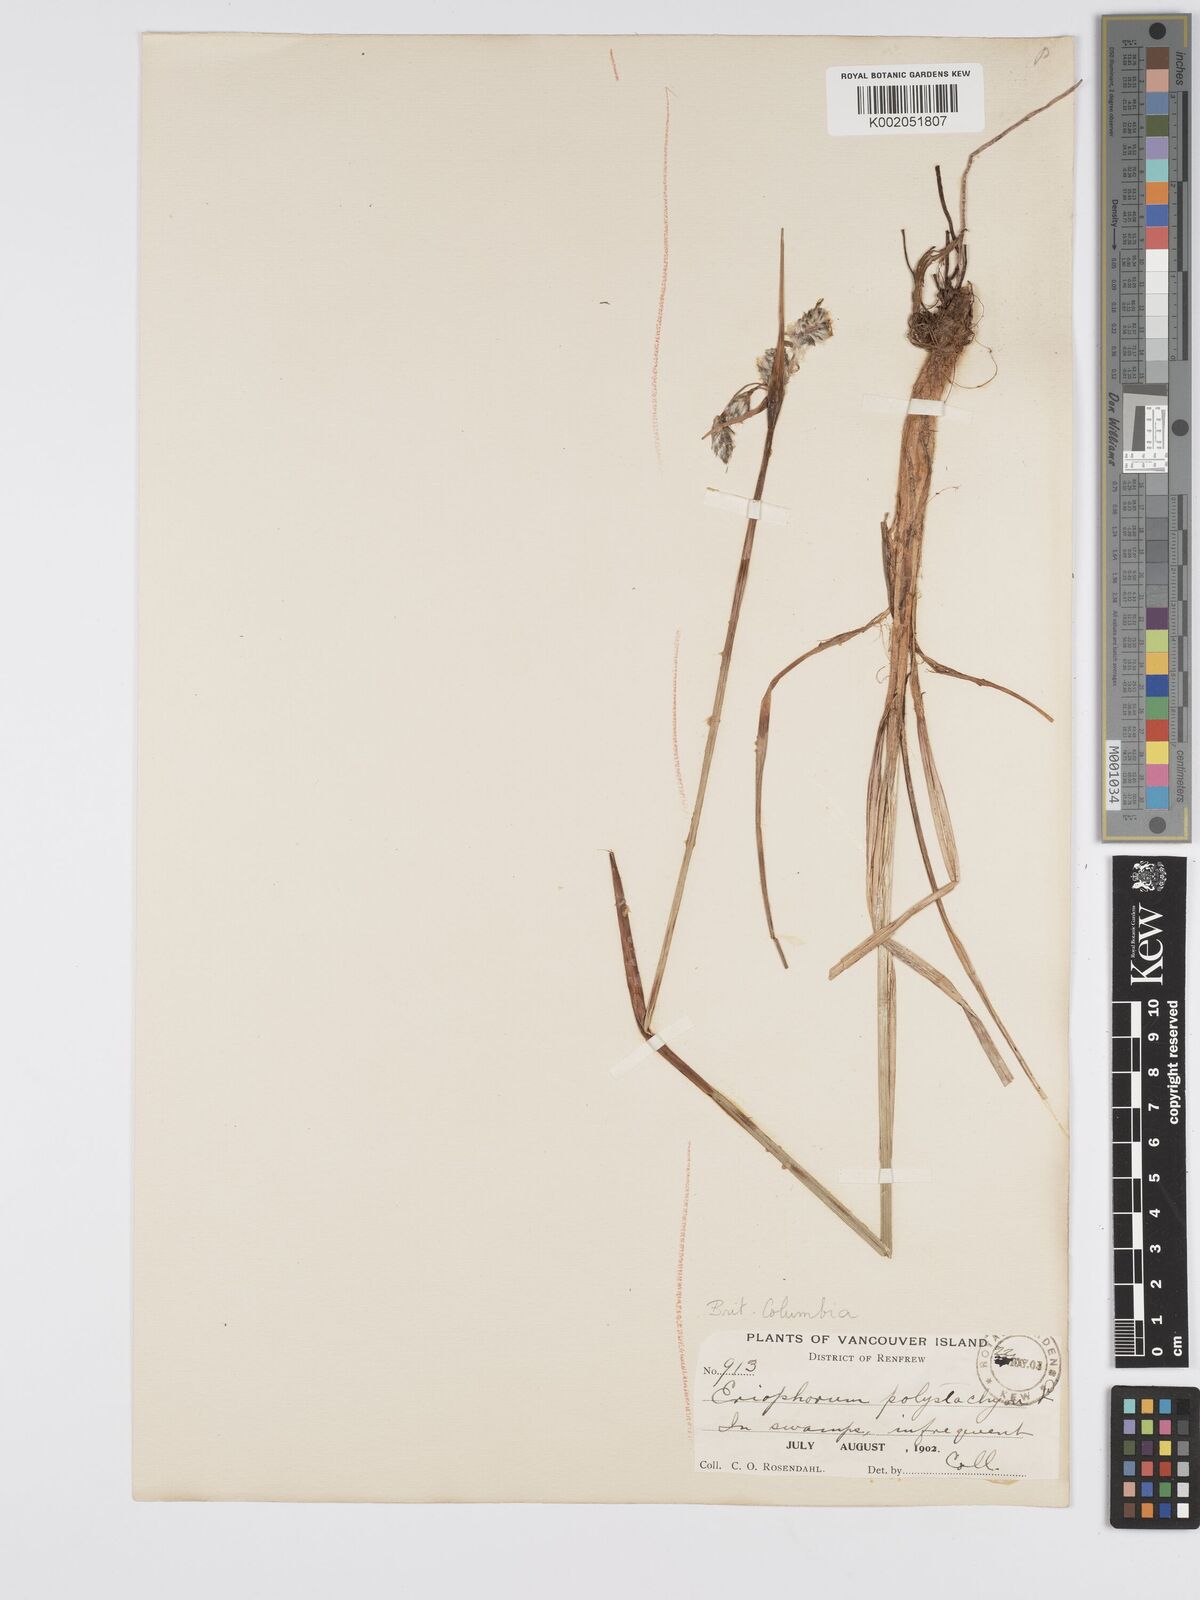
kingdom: Plantae
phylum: Tracheophyta
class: Liliopsida
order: Poales
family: Cyperaceae
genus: Eriophorum
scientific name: Eriophorum angustifolium
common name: Common cottongrass
